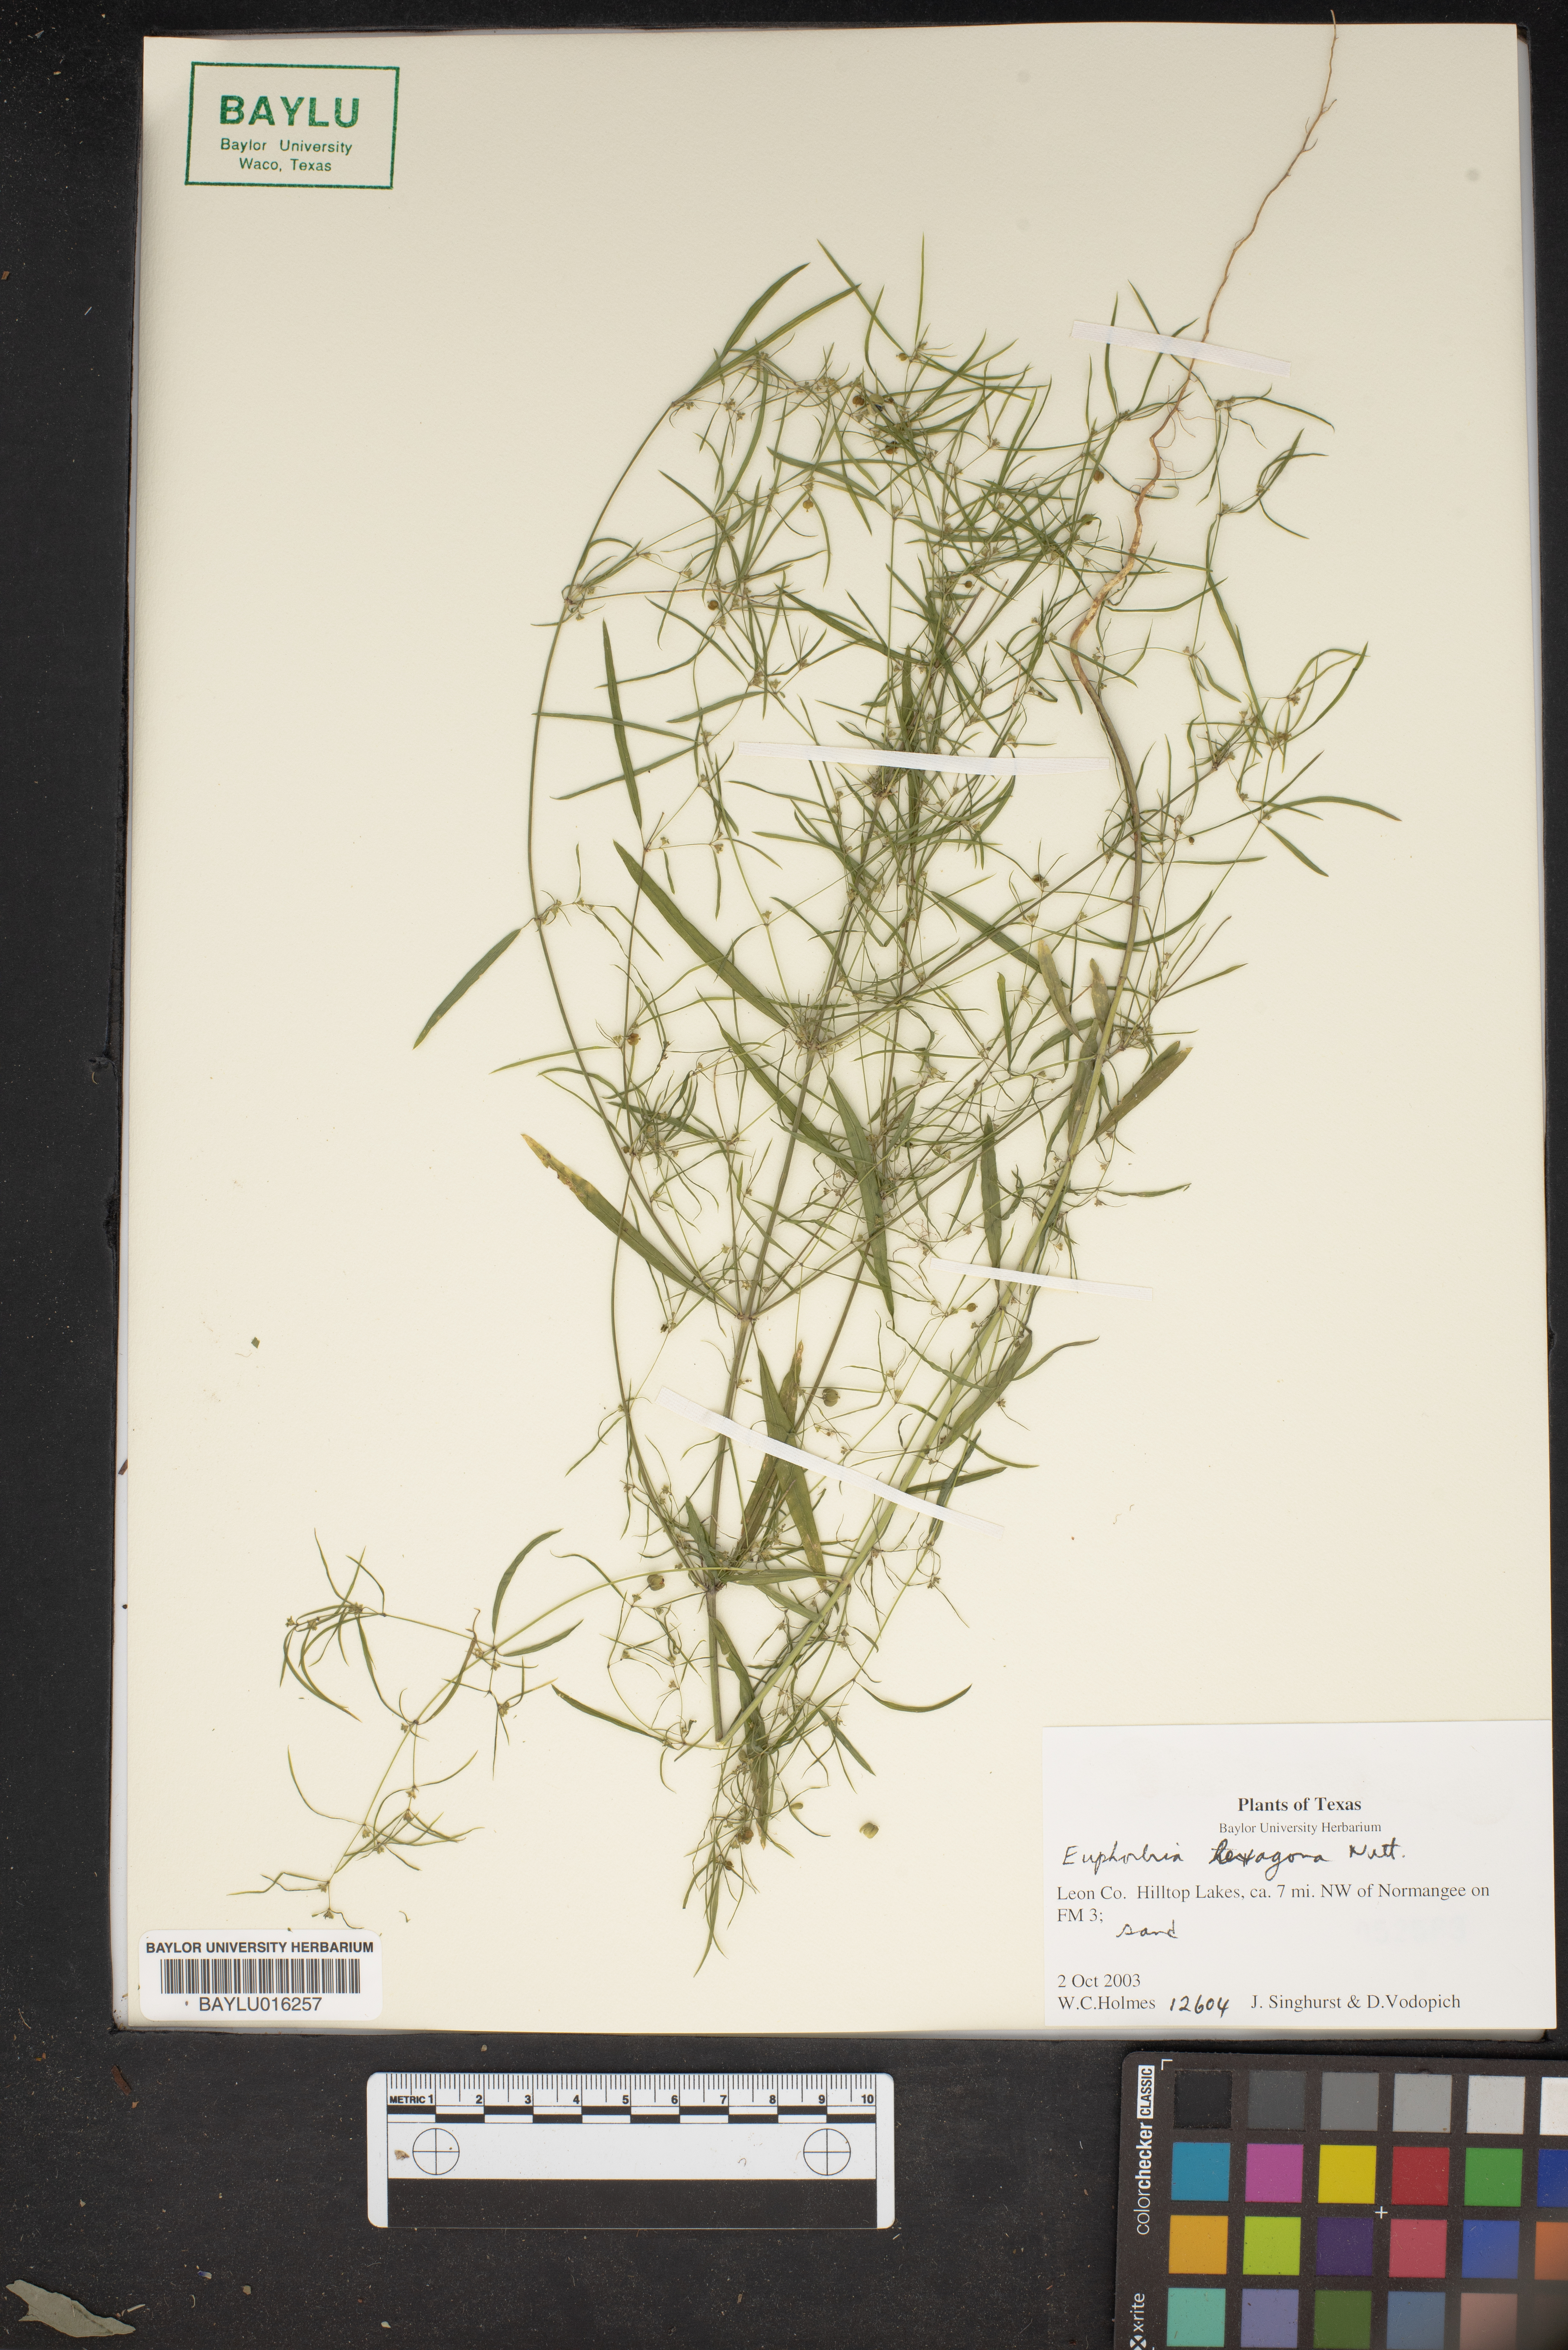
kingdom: Plantae
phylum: Tracheophyta
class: Magnoliopsida
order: Malpighiales
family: Euphorbiaceae
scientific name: Euphorbiaceae
